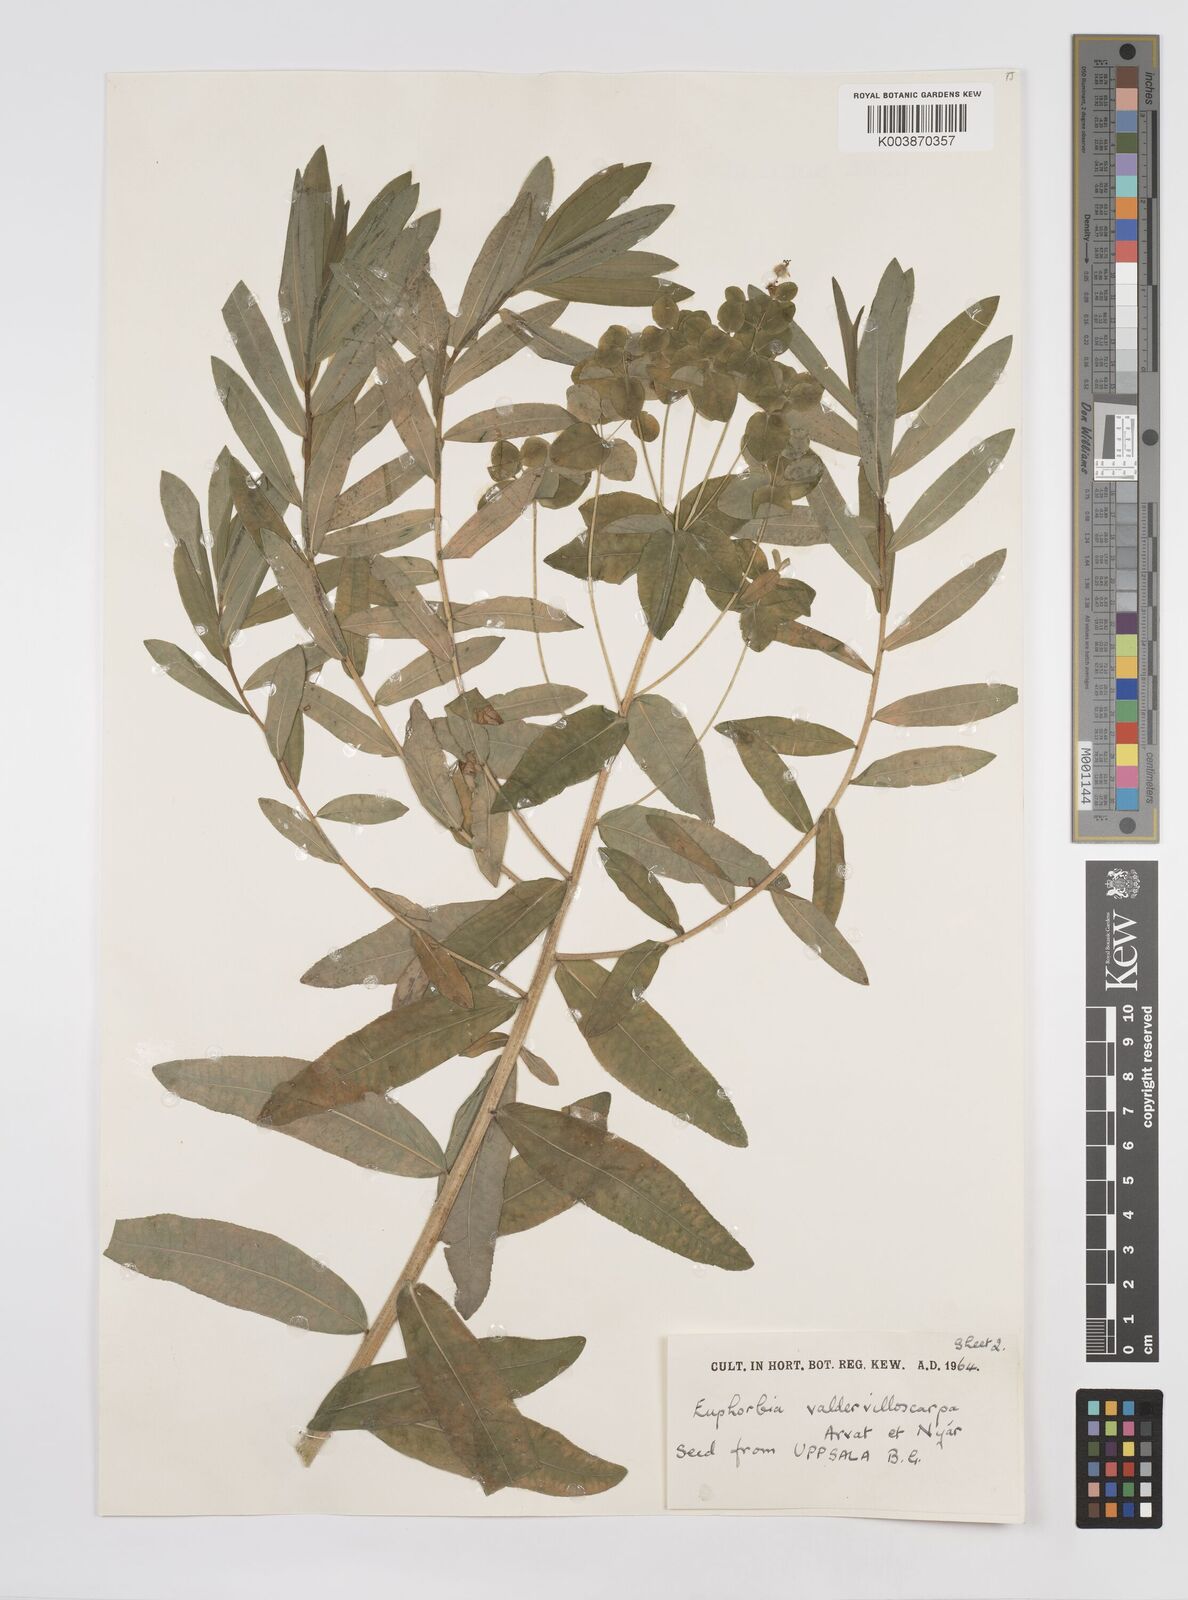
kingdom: Plantae
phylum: Tracheophyta
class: Magnoliopsida
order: Malpighiales
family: Euphorbiaceae
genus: Euphorbia
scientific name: Euphorbia valdevillosocarpa
